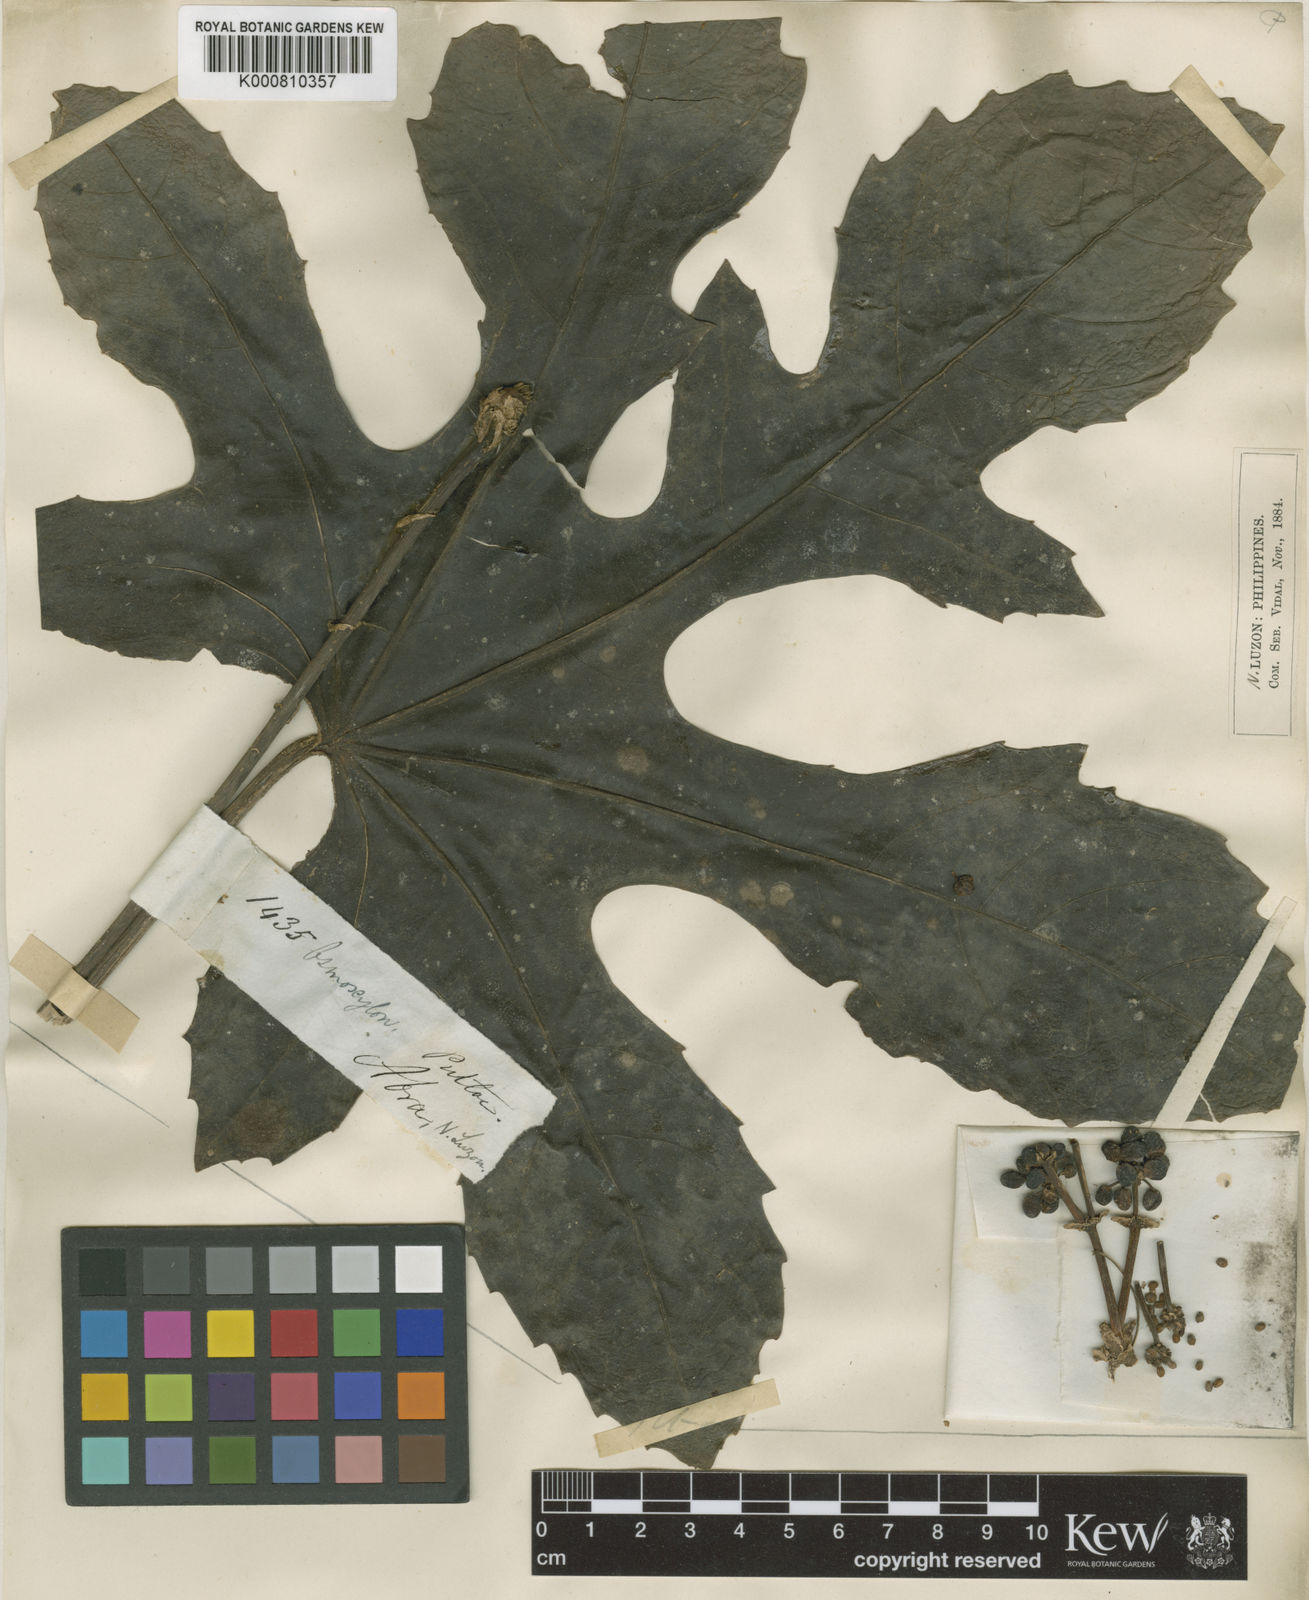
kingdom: Plantae
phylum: Tracheophyta
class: Magnoliopsida
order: Apiales
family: Araliaceae
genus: Osmoxylon
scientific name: Osmoxylon pulcherrimum
